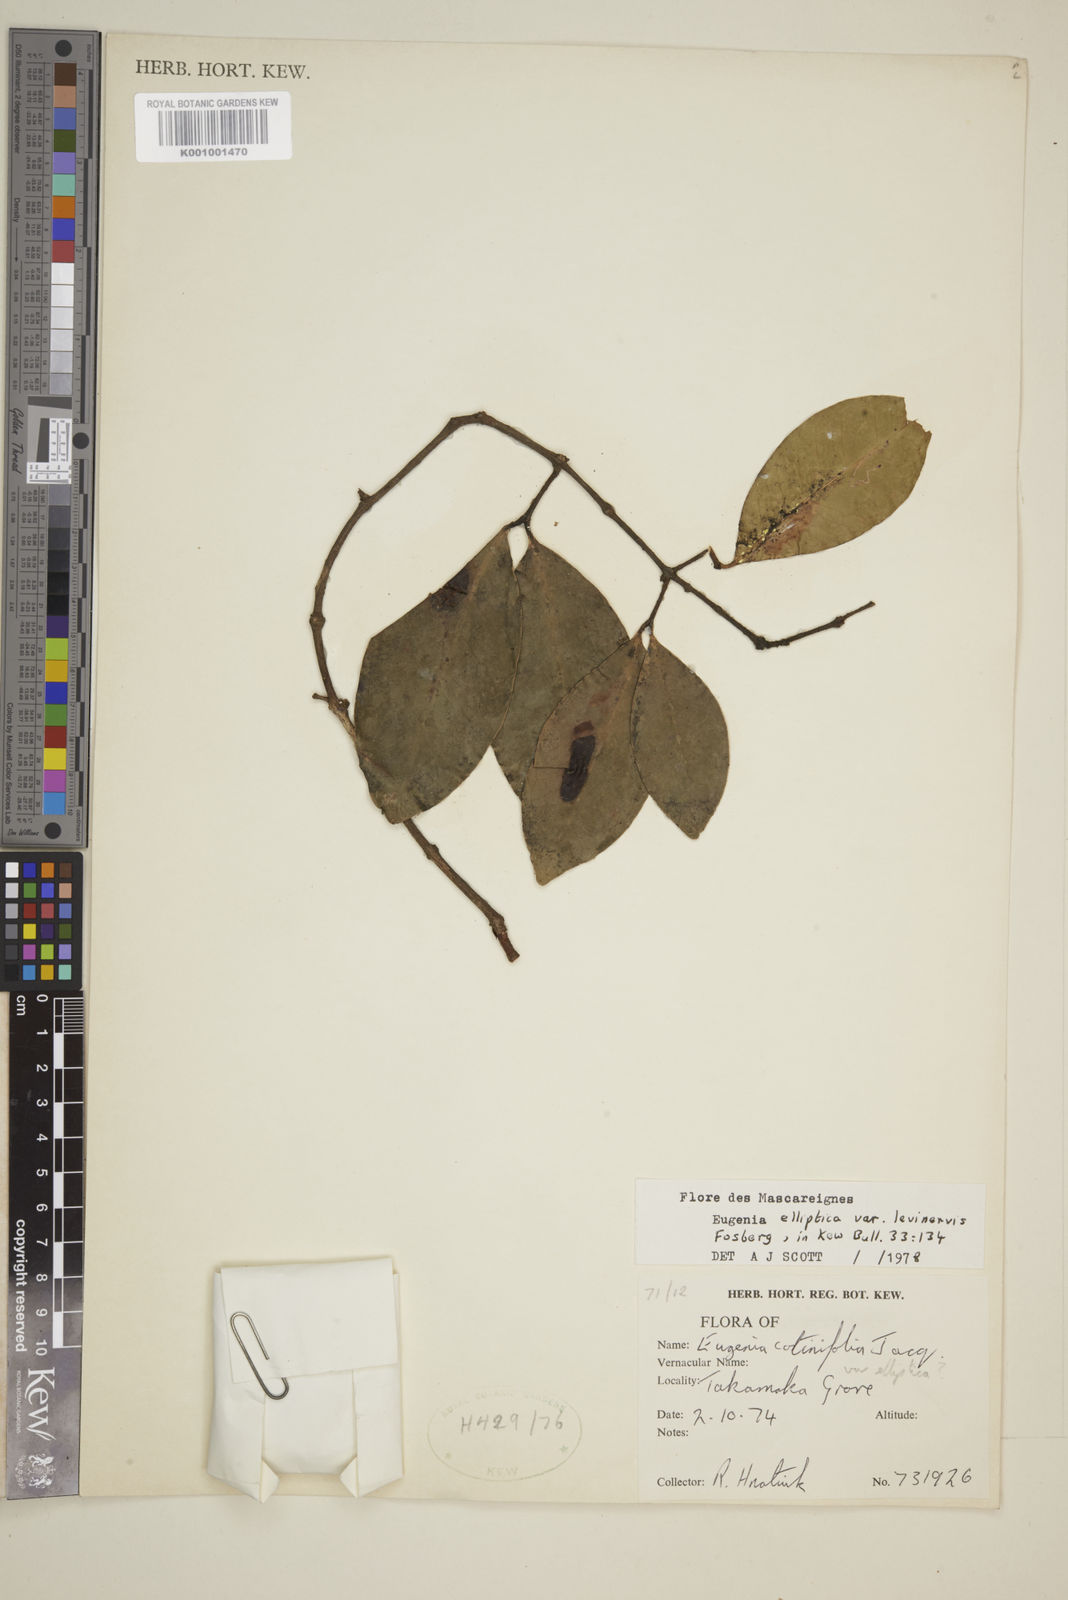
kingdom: Plantae
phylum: Tracheophyta
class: Magnoliopsida
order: Myrtales
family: Myrtaceae
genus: Eugenia
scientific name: Eugenia levinervis
